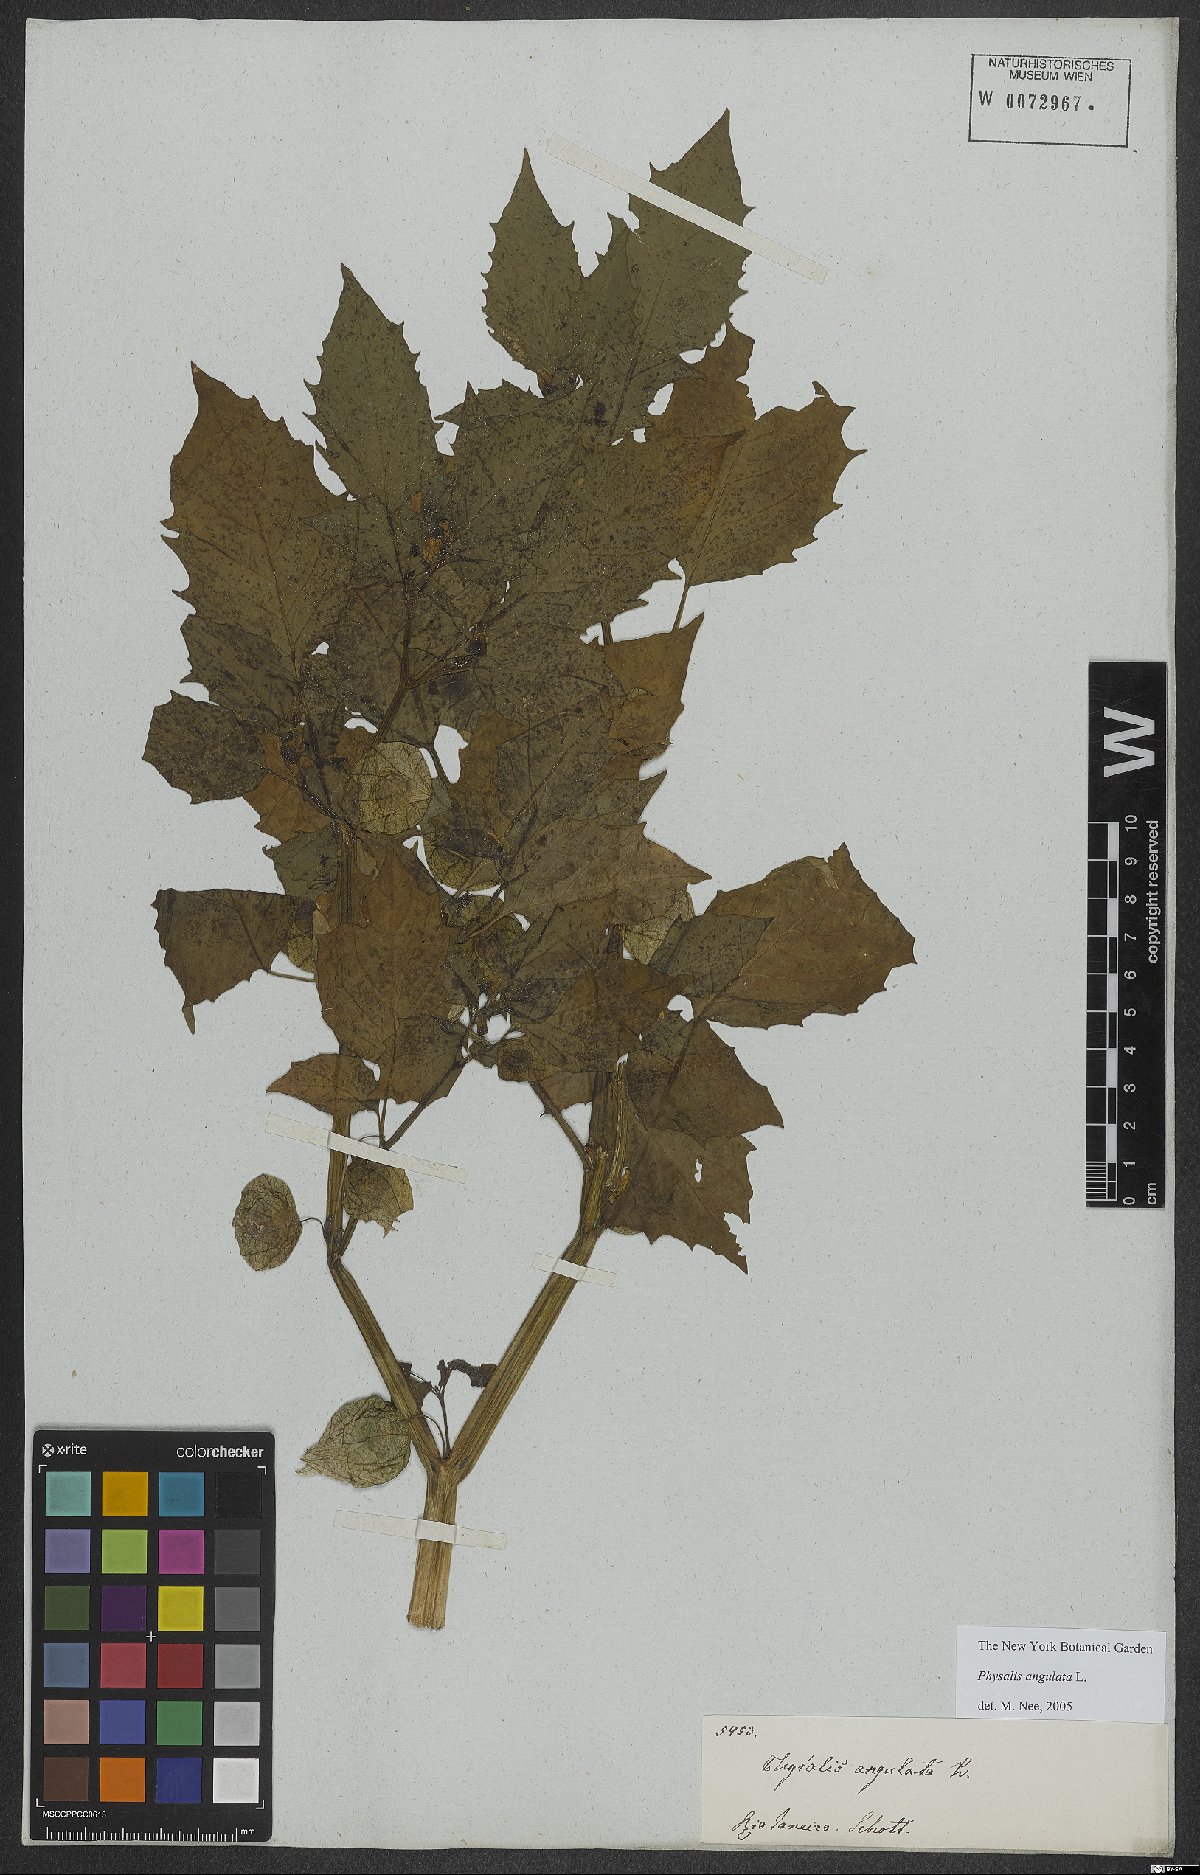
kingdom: Plantae
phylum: Tracheophyta
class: Magnoliopsida
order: Solanales
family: Solanaceae
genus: Physalis
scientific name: Physalis angulata
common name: Angular winter-cherry
